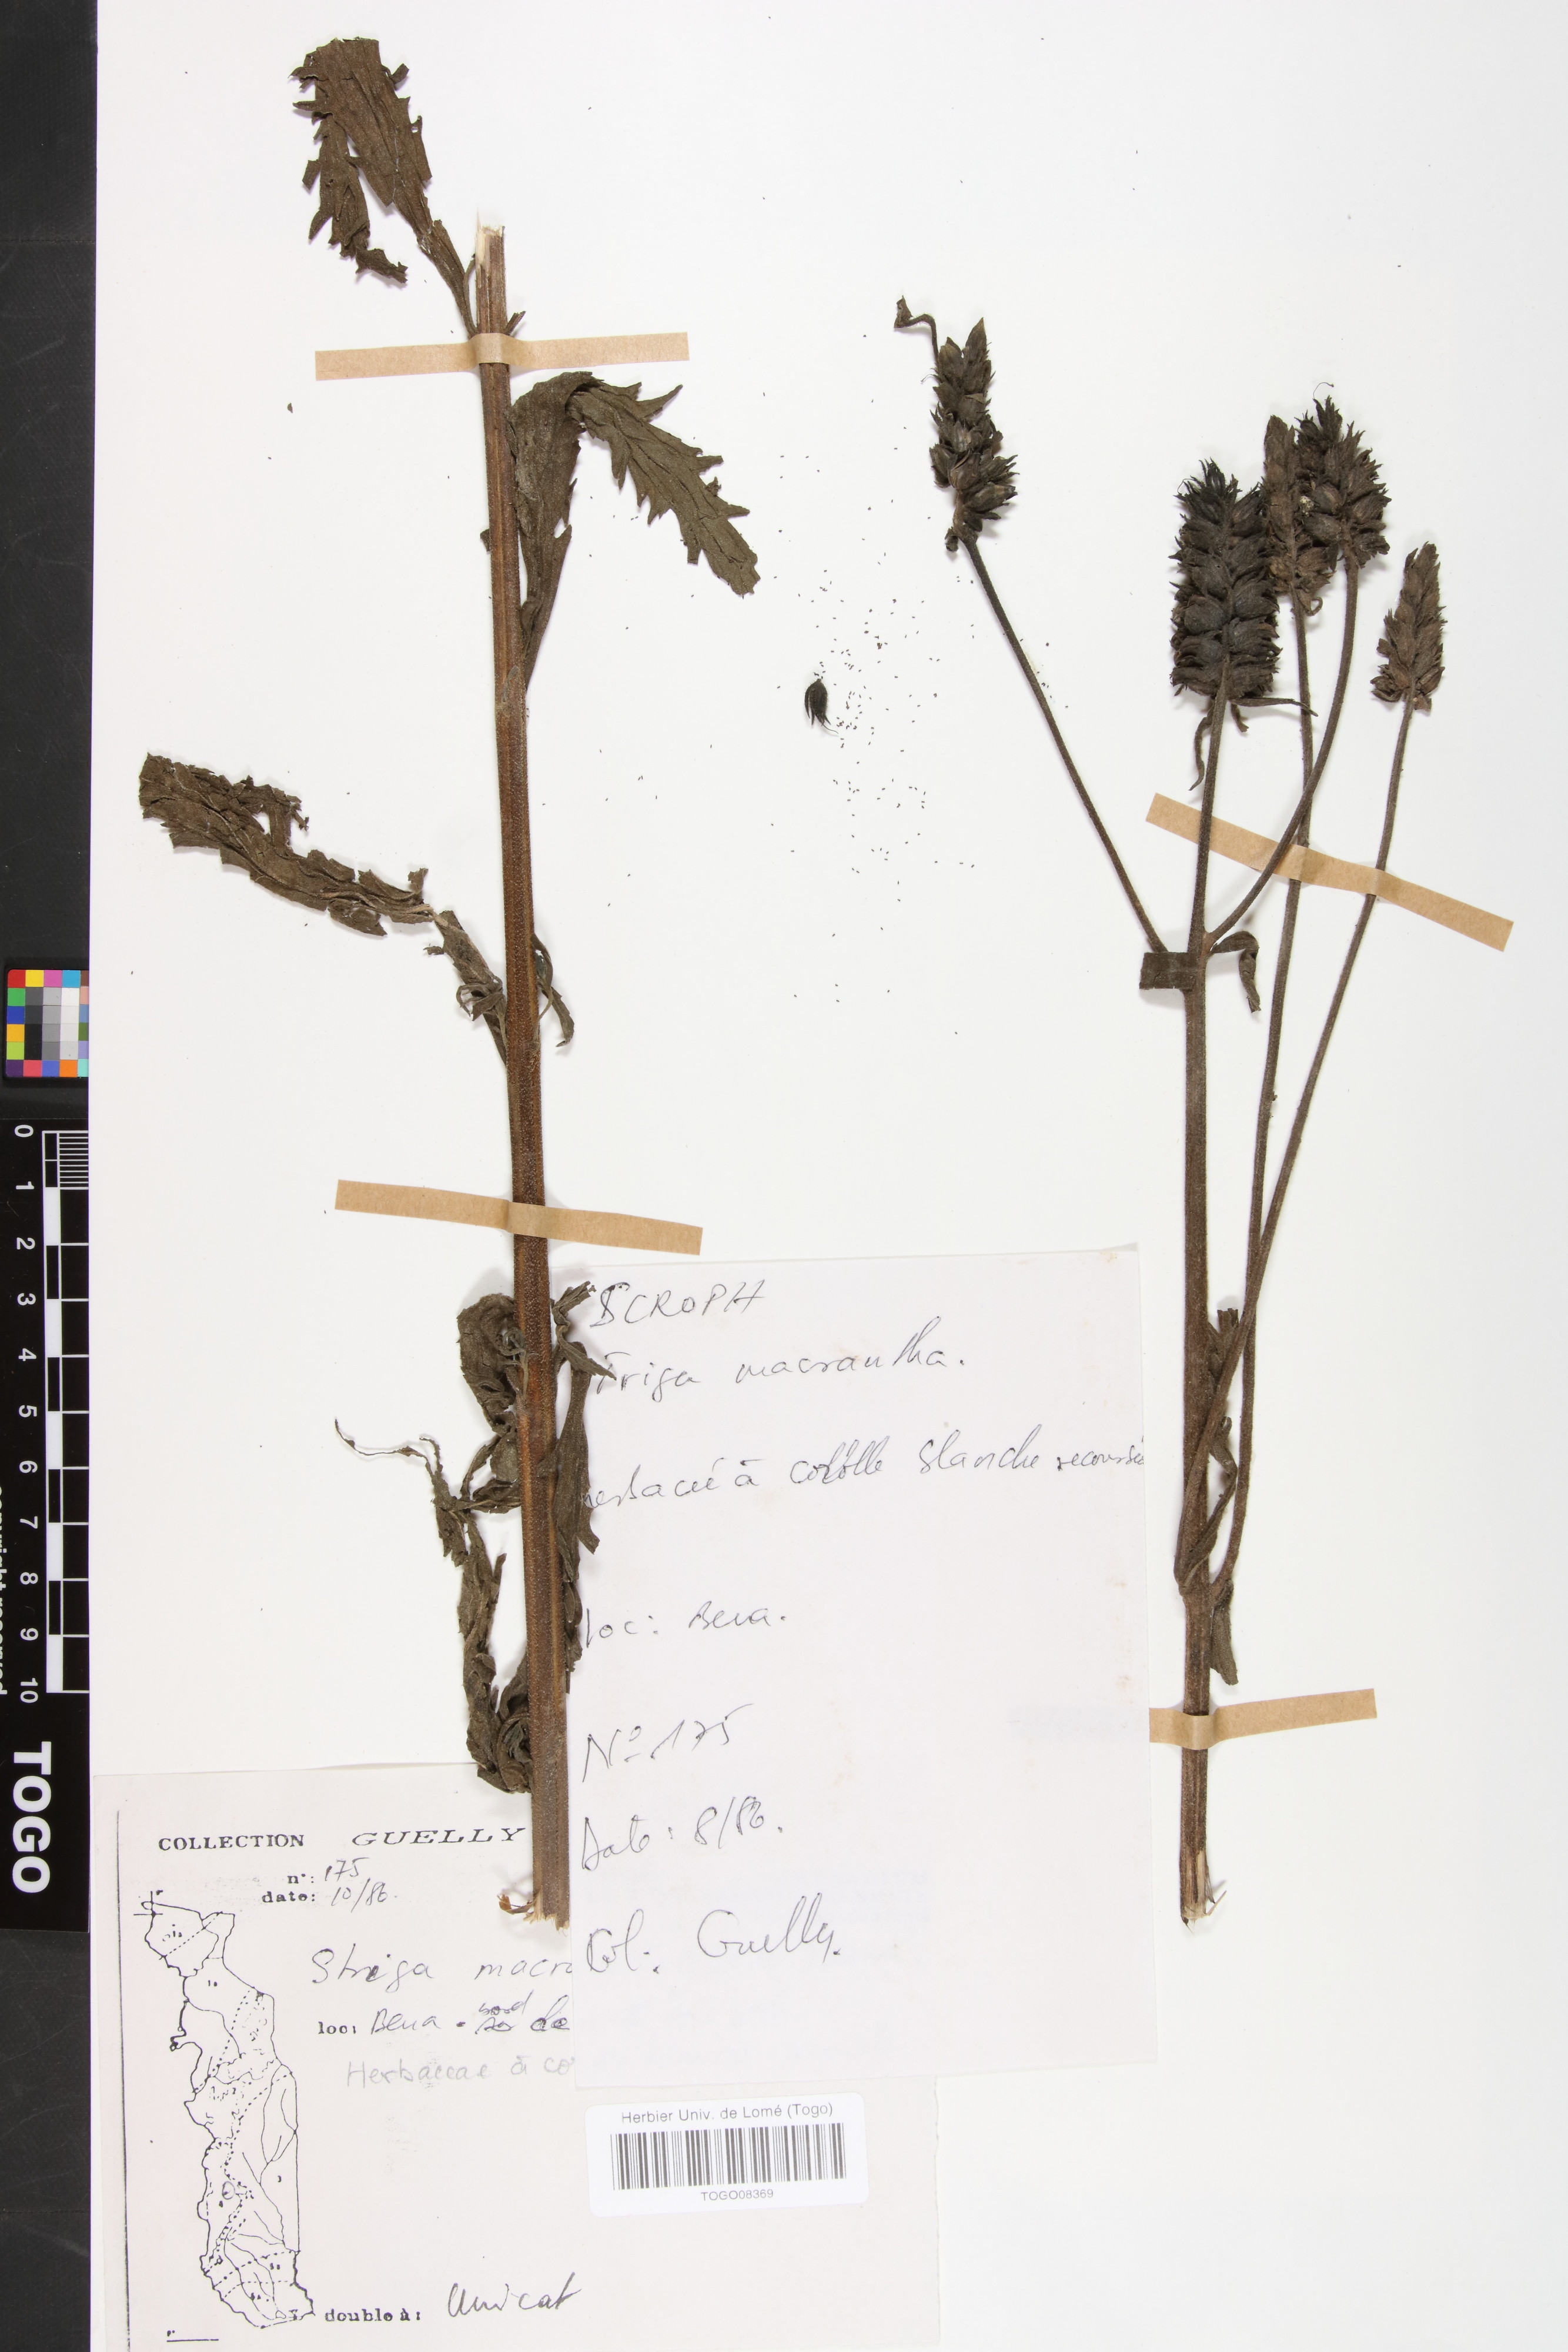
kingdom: Plantae
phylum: Tracheophyta
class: Magnoliopsida
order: Lamiales
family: Orobanchaceae
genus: Striga
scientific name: Striga macrantha
